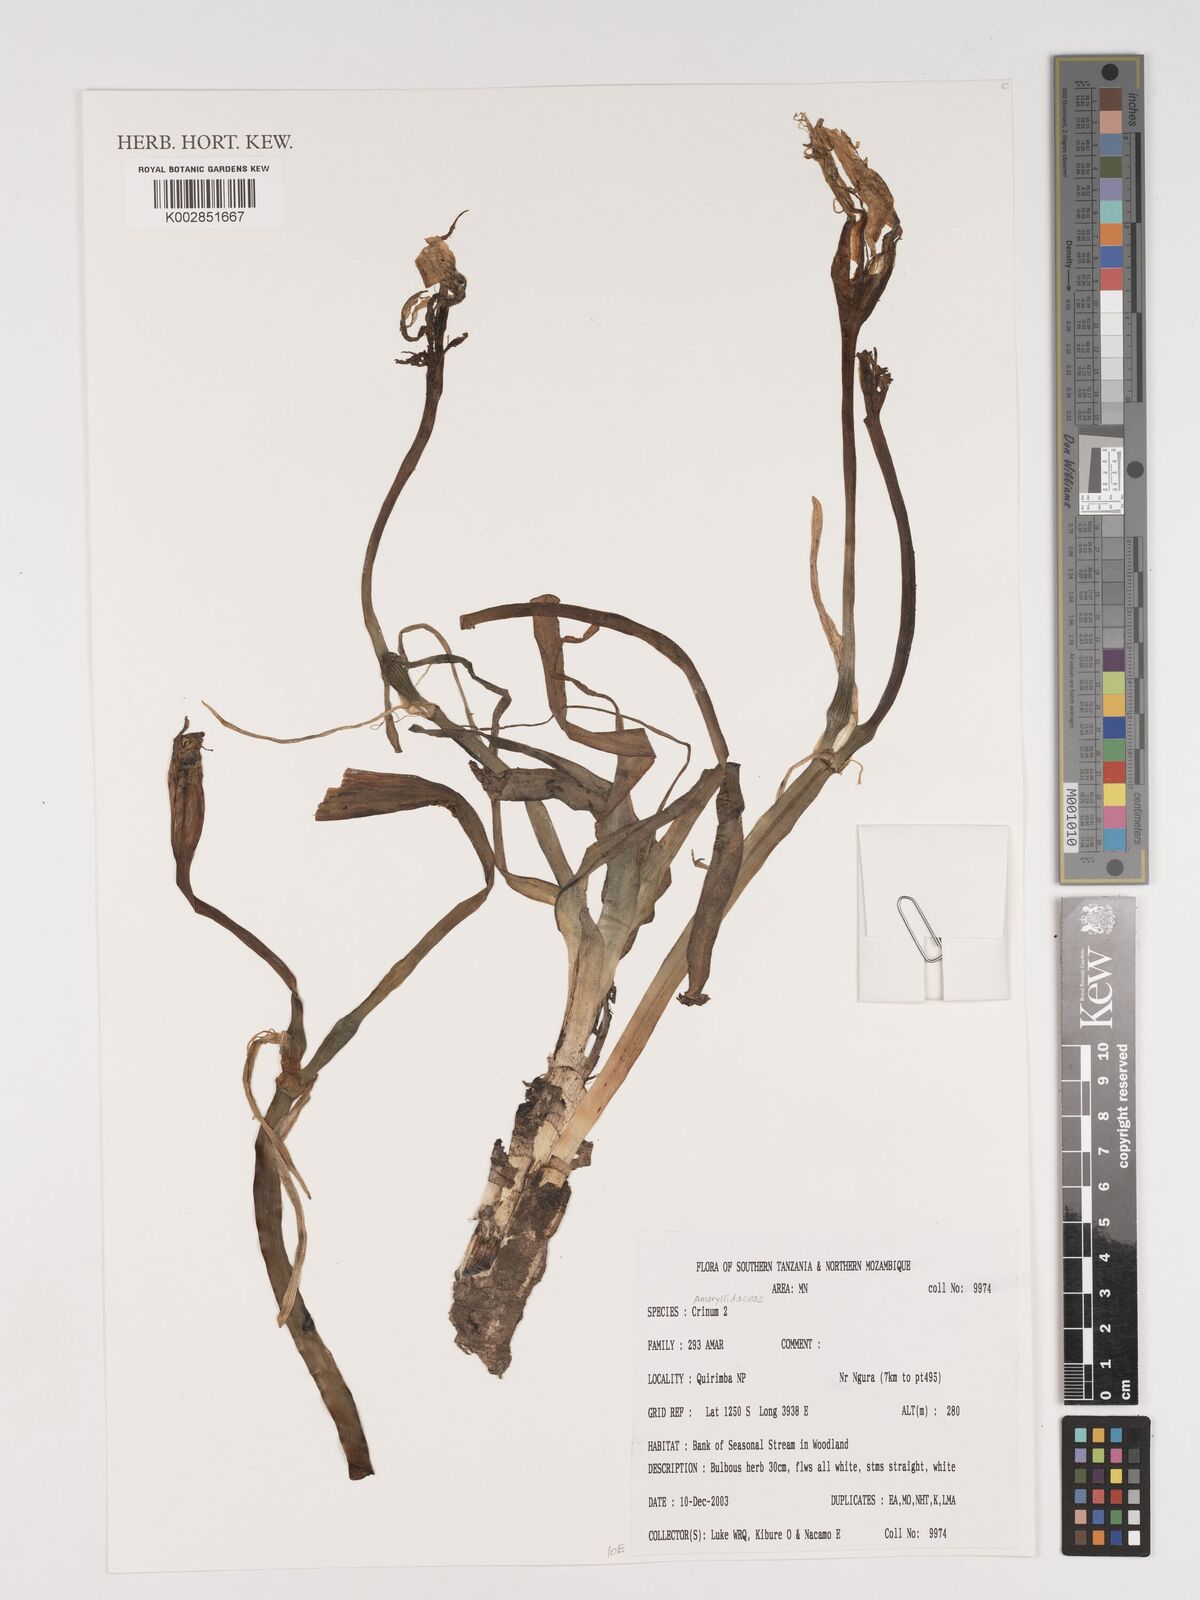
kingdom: Plantae
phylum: Tracheophyta
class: Liliopsida
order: Asparagales
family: Amaryllidaceae
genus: Crinum
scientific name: Crinum
